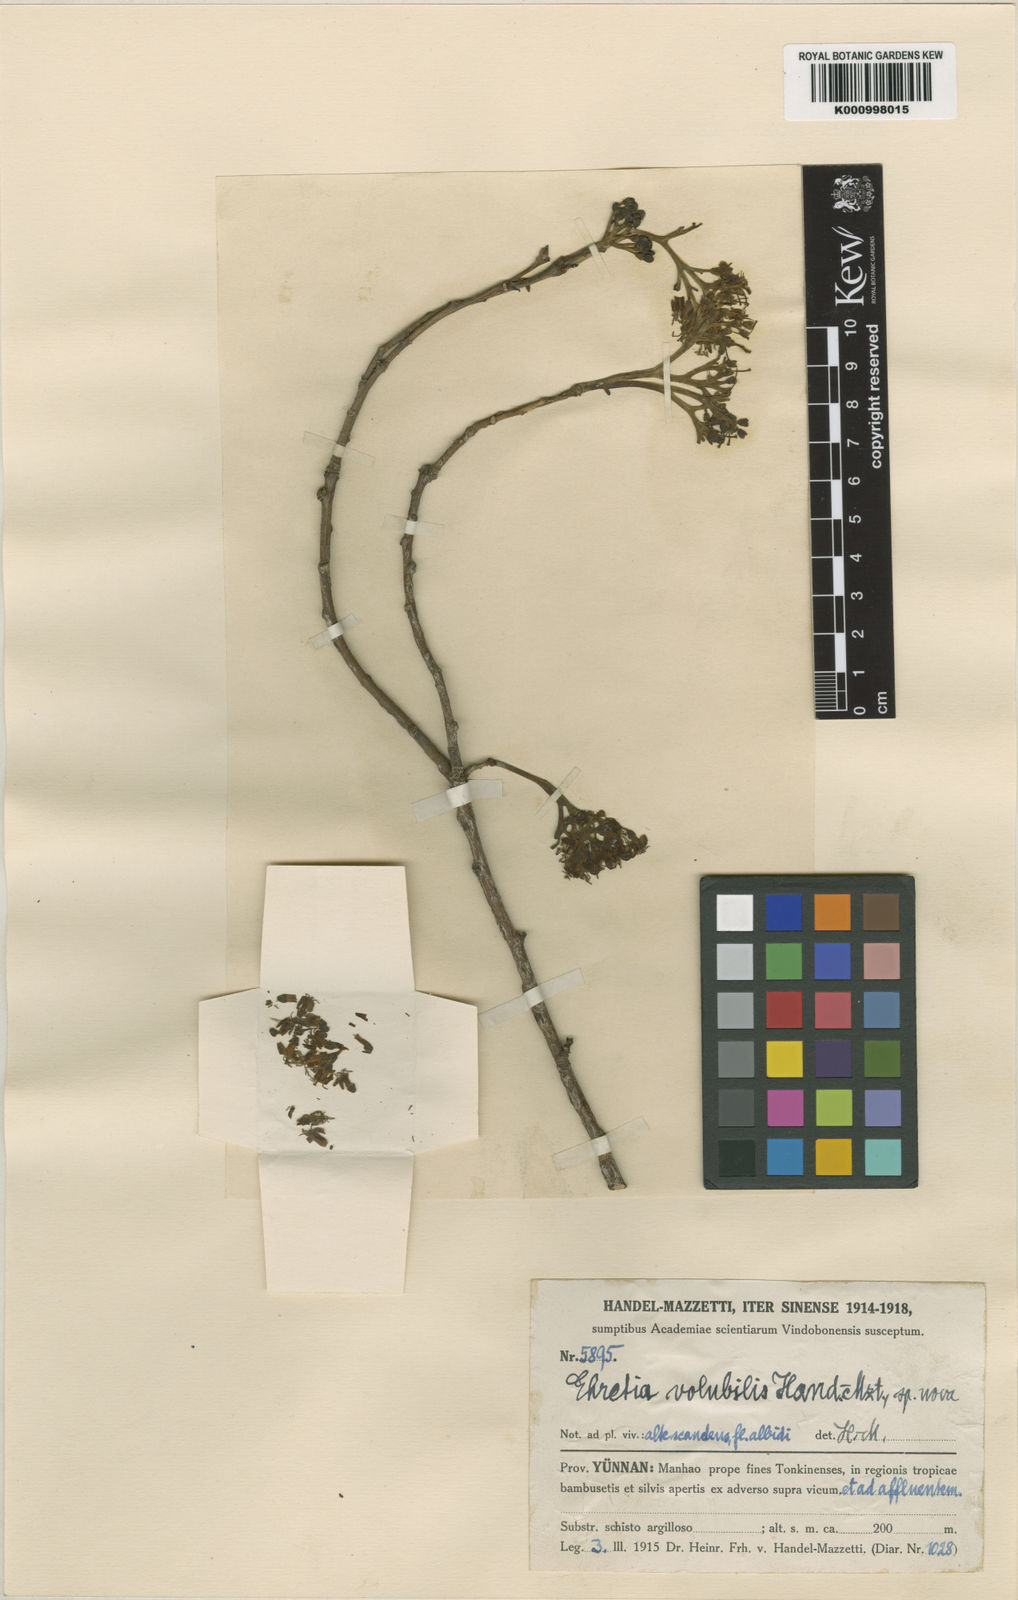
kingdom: Plantae
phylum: Tracheophyta
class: Magnoliopsida
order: Boraginales
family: Ehretiaceae
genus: Ehretia
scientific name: Ehretia dunniana
